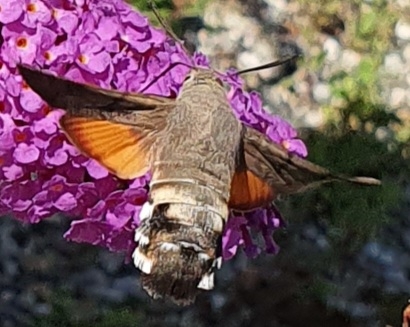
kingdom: Animalia
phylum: Arthropoda
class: Insecta
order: Lepidoptera
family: Sphingidae
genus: Macroglossum
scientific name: Macroglossum stellatarum
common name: Duehale
